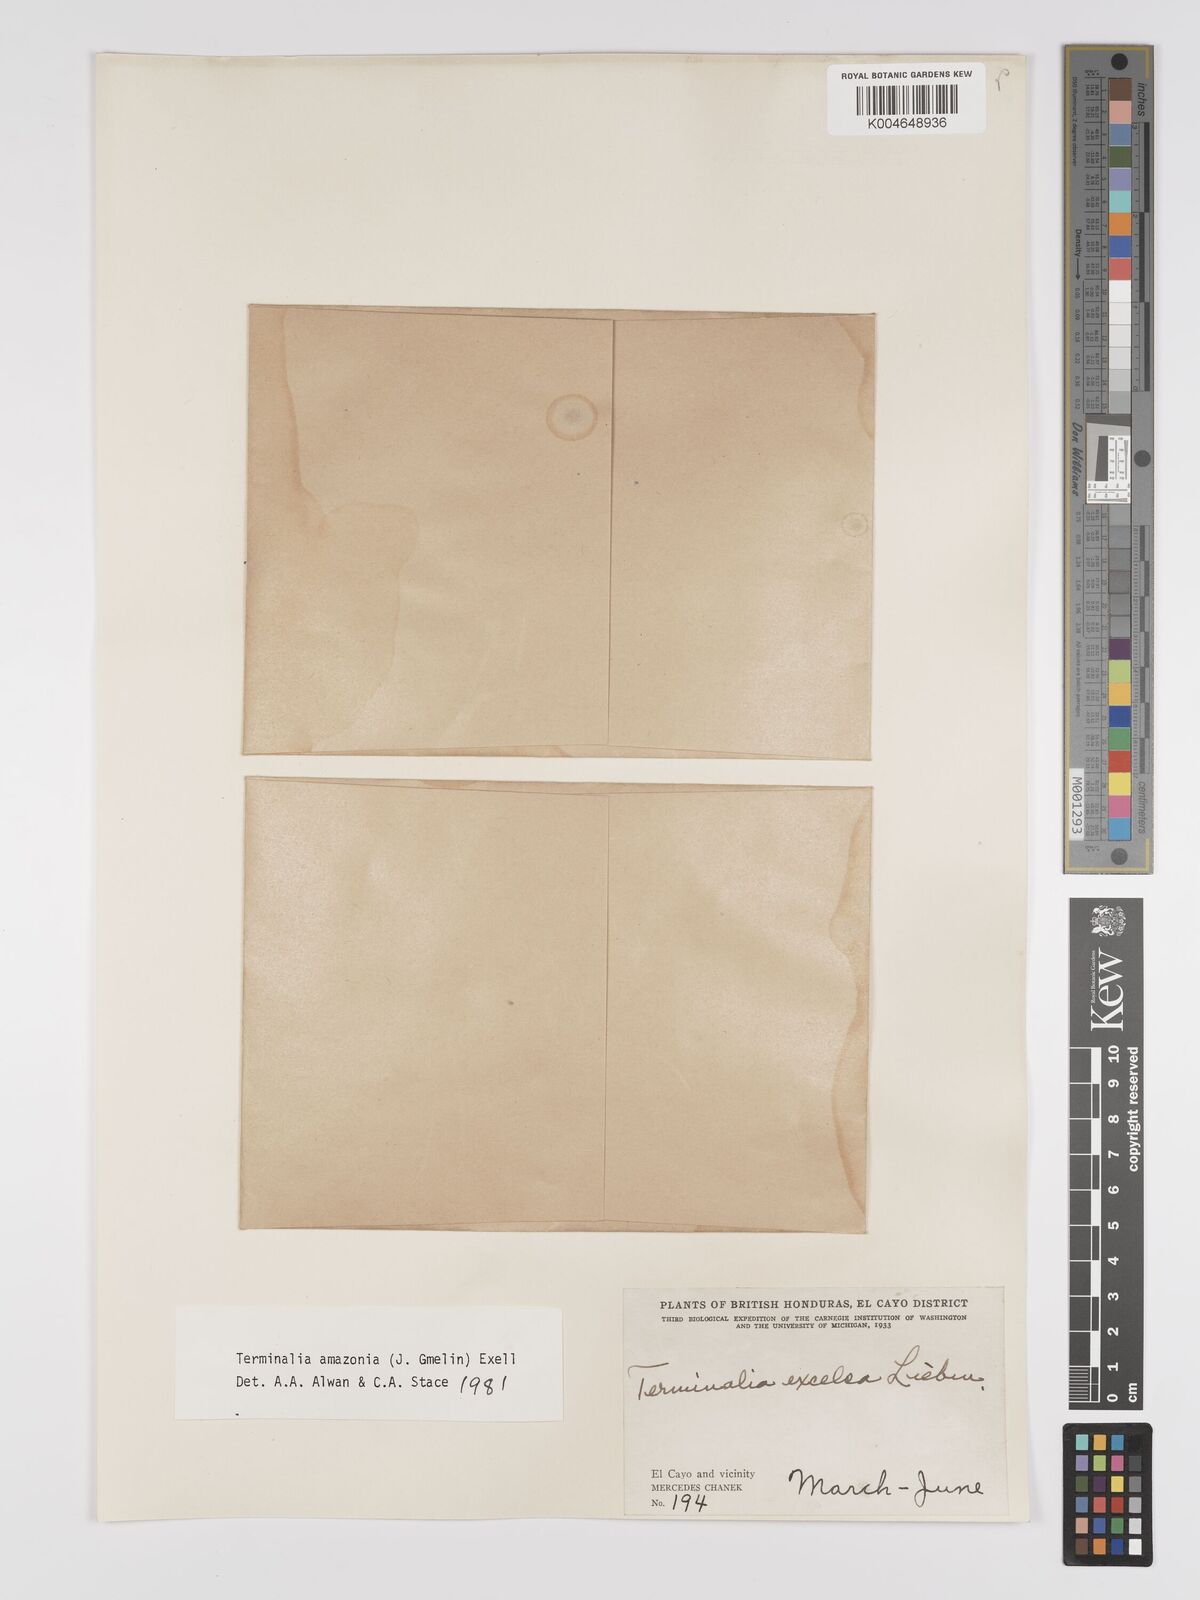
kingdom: Plantae
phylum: Tracheophyta
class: Magnoliopsida
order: Myrtales
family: Combretaceae
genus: Terminalia
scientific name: Terminalia amazonica
